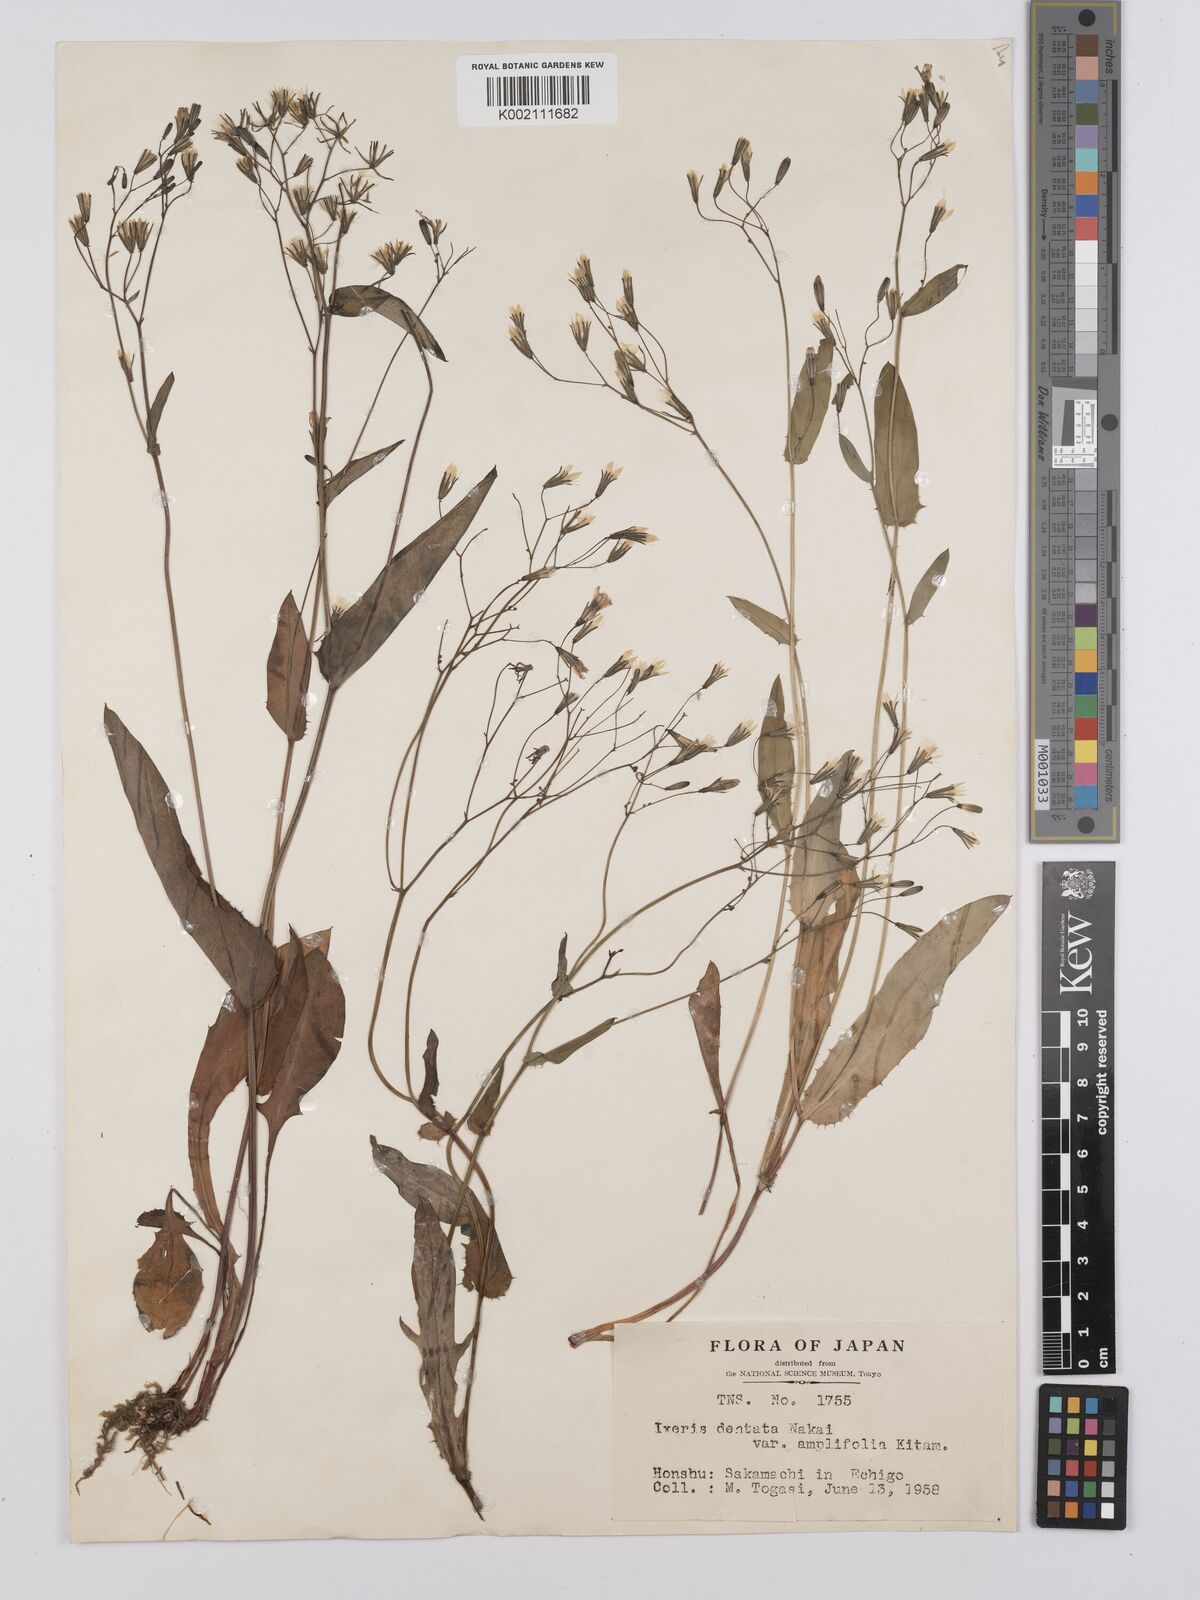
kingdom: Plantae
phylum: Tracheophyta
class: Magnoliopsida
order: Asterales
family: Asteraceae
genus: Ixeridium
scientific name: Ixeridium
